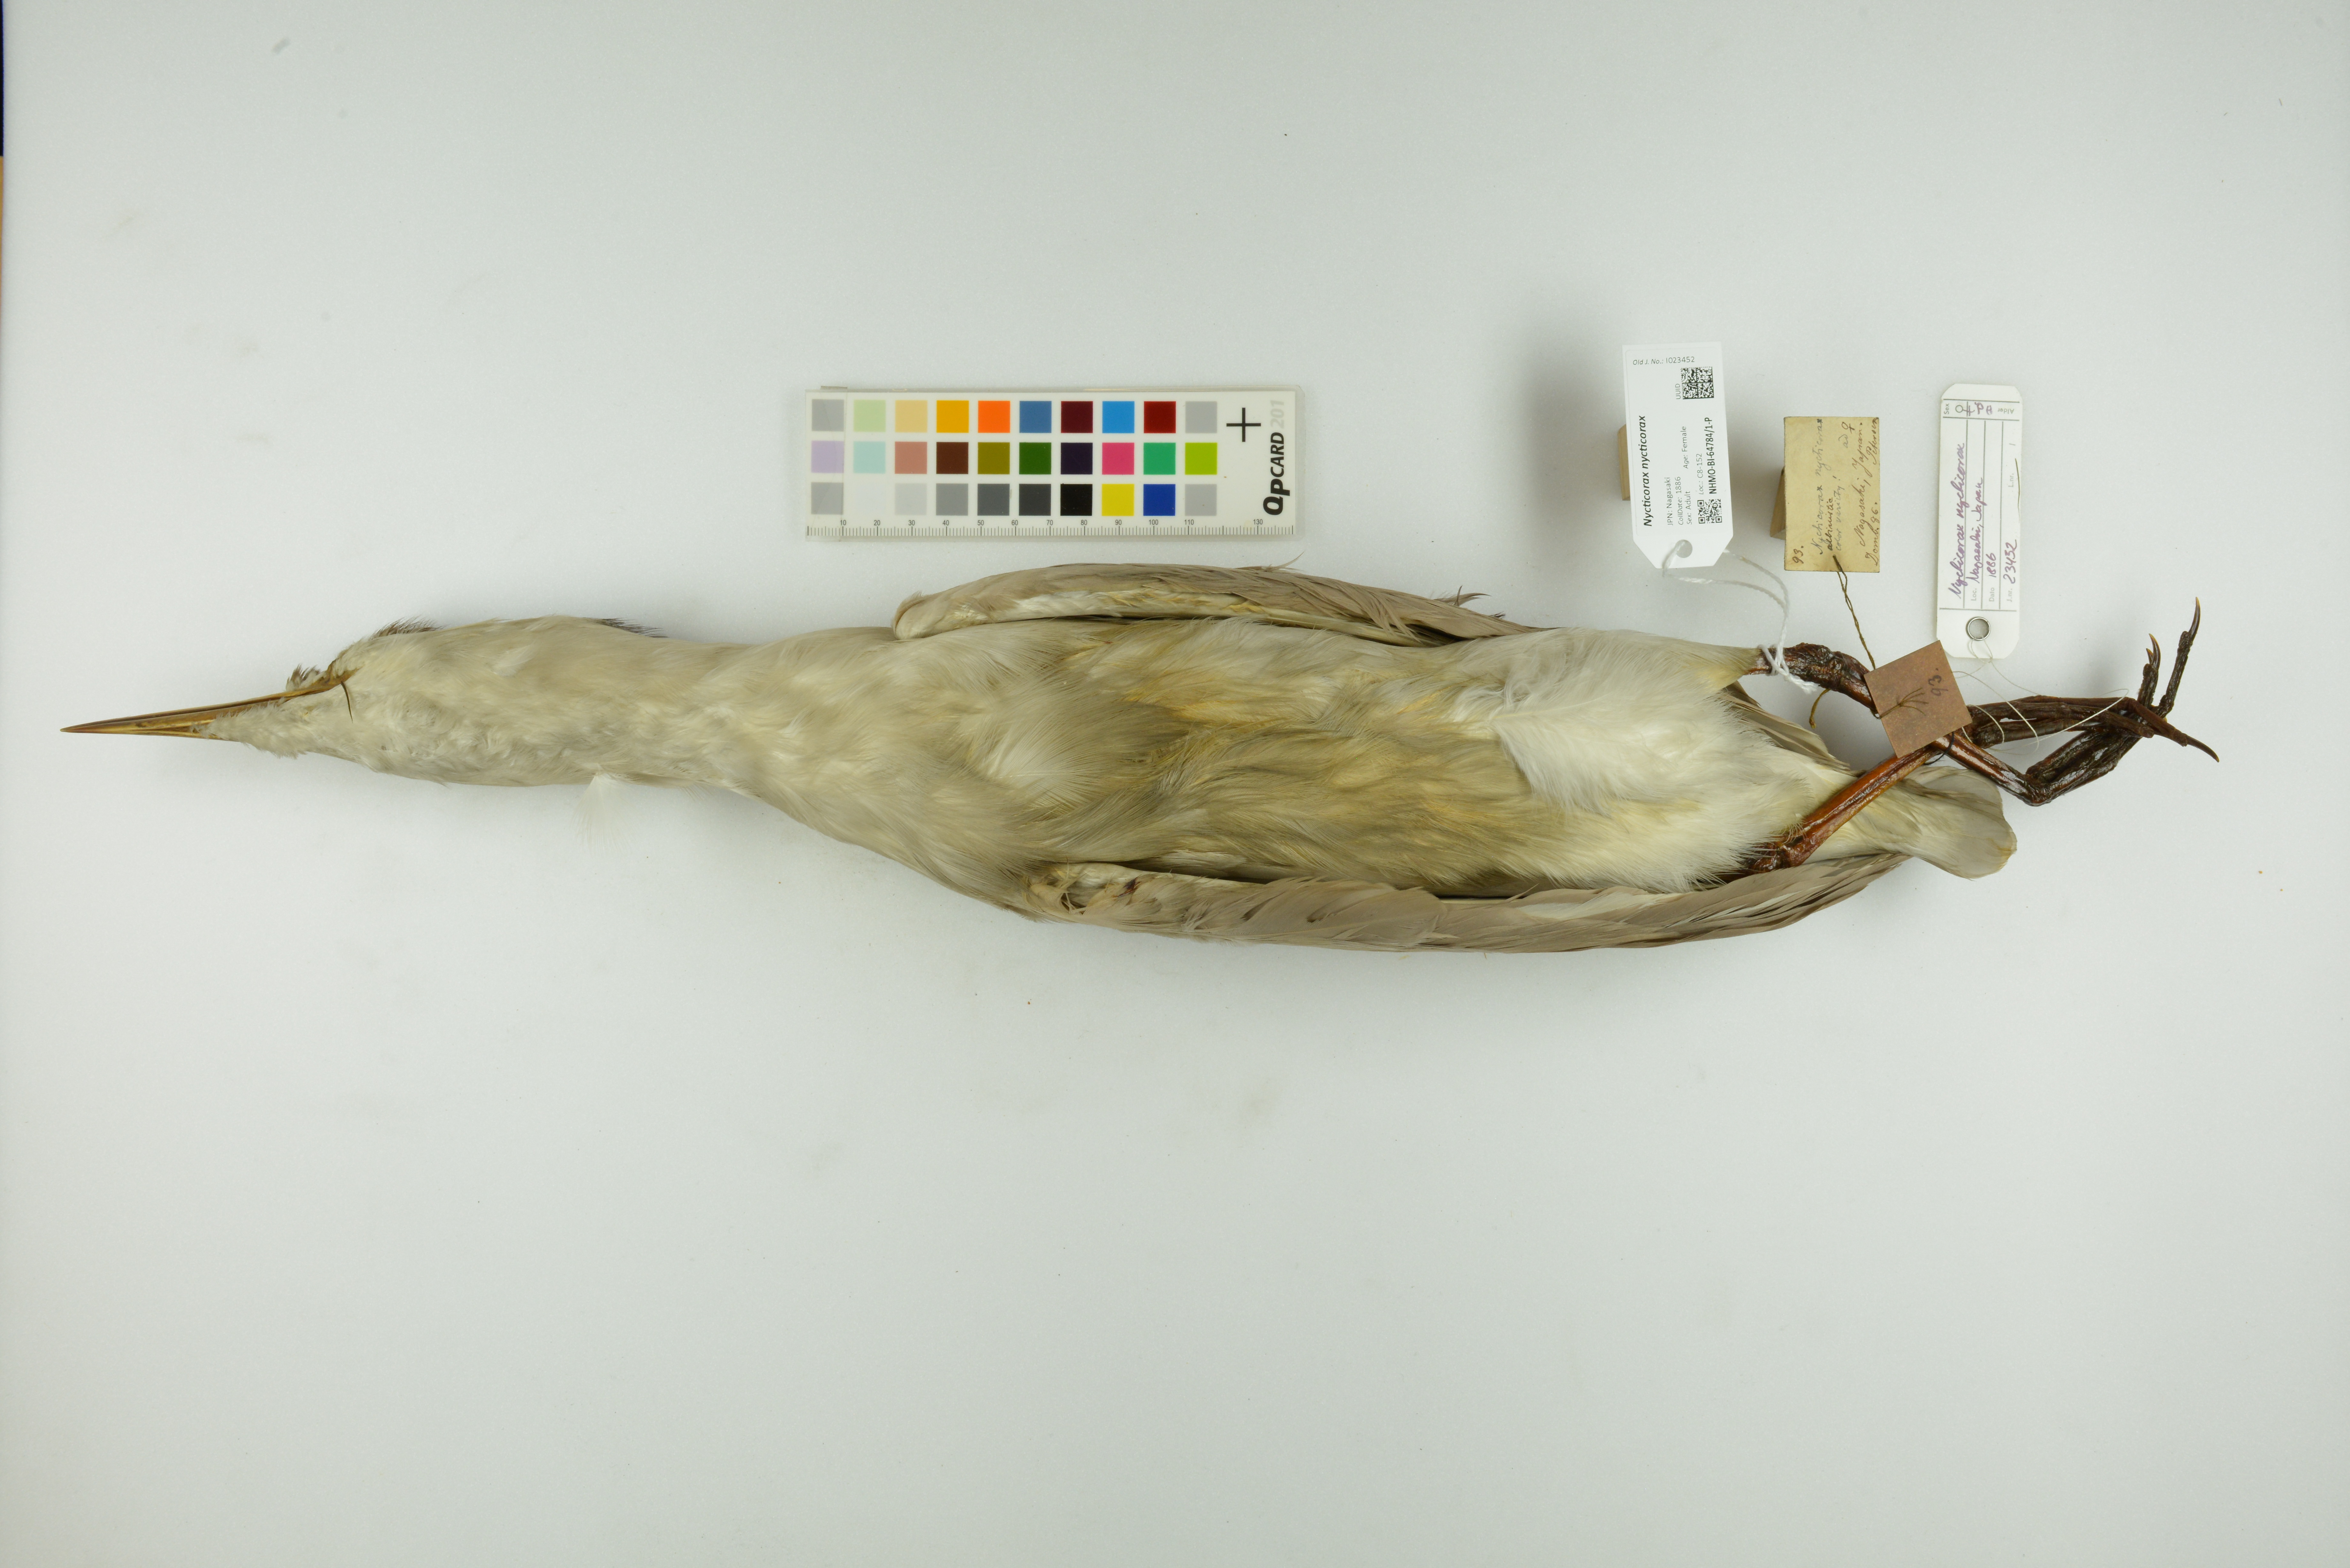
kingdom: Animalia
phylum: Chordata
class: Aves
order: Pelecaniformes
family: Ardeidae
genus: Nycticorax
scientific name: Nycticorax nycticorax
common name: Black-crowned night heron
